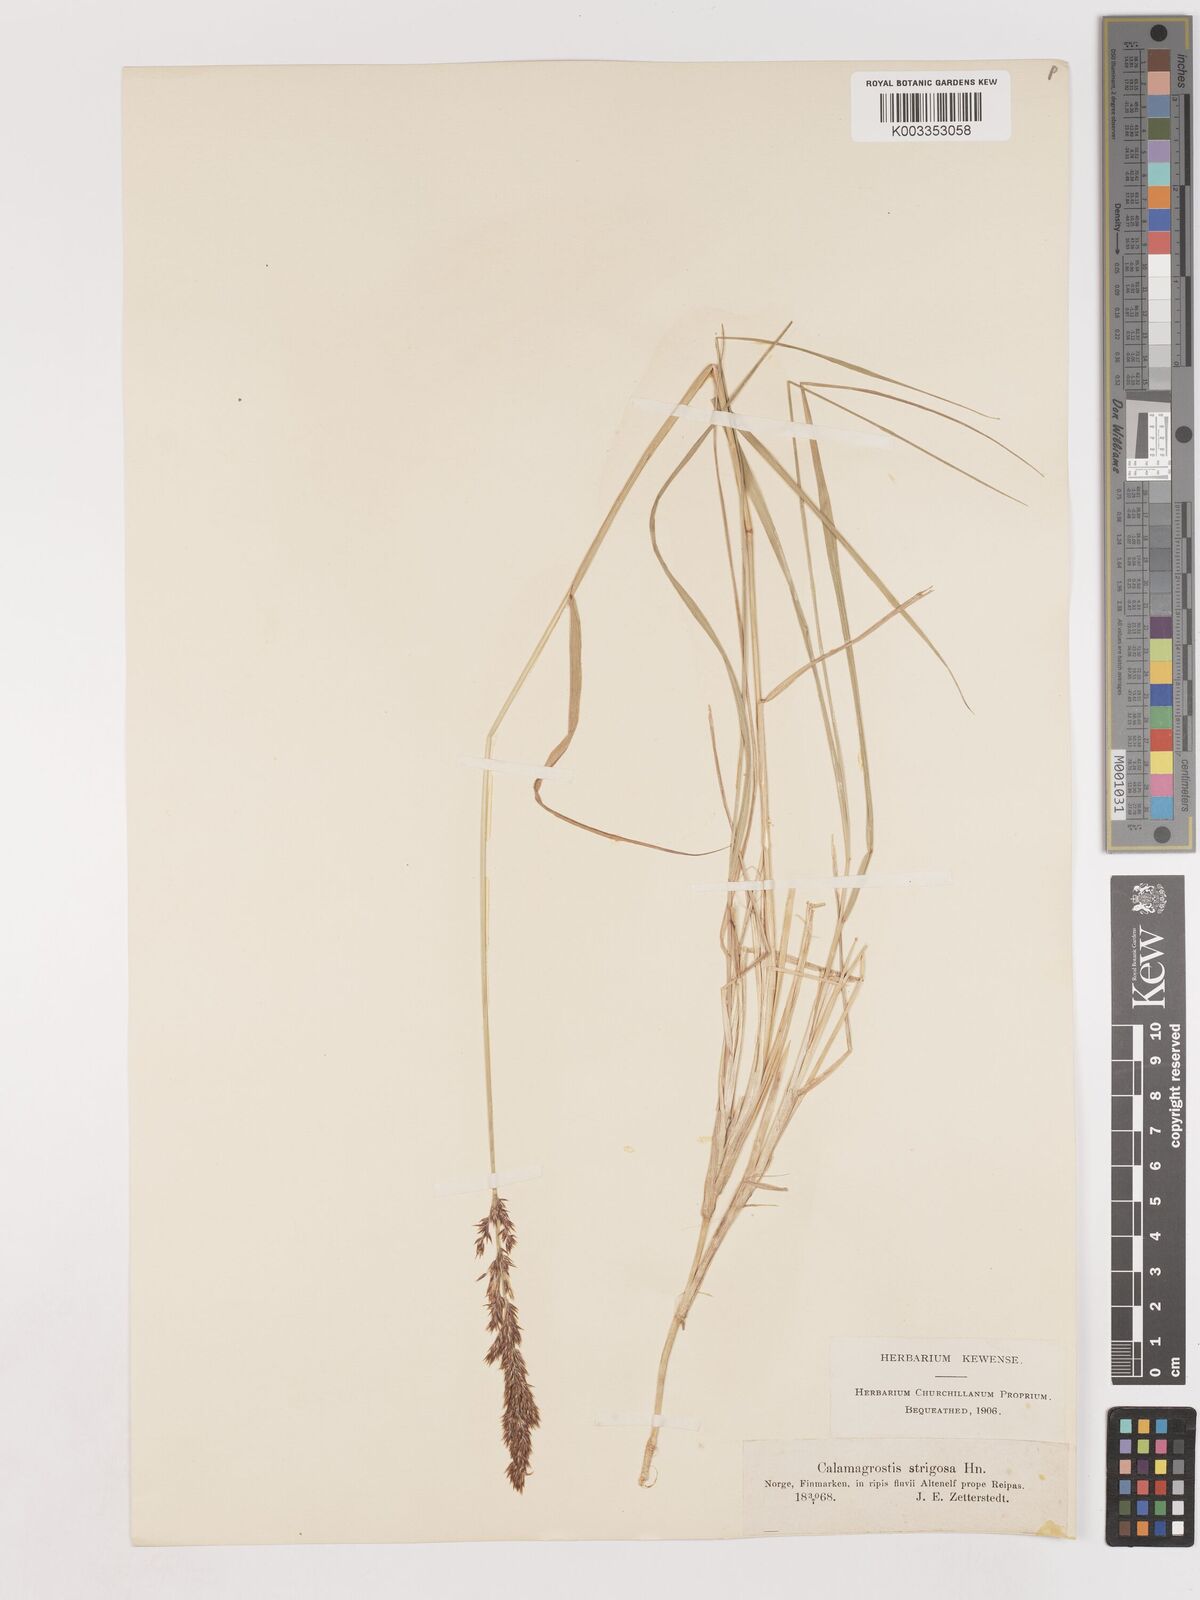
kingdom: Plantae
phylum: Tracheophyta
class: Liliopsida
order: Poales
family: Poaceae
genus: Calamagrostis
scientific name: Calamagrostis epigejos
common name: Wood small-reed
